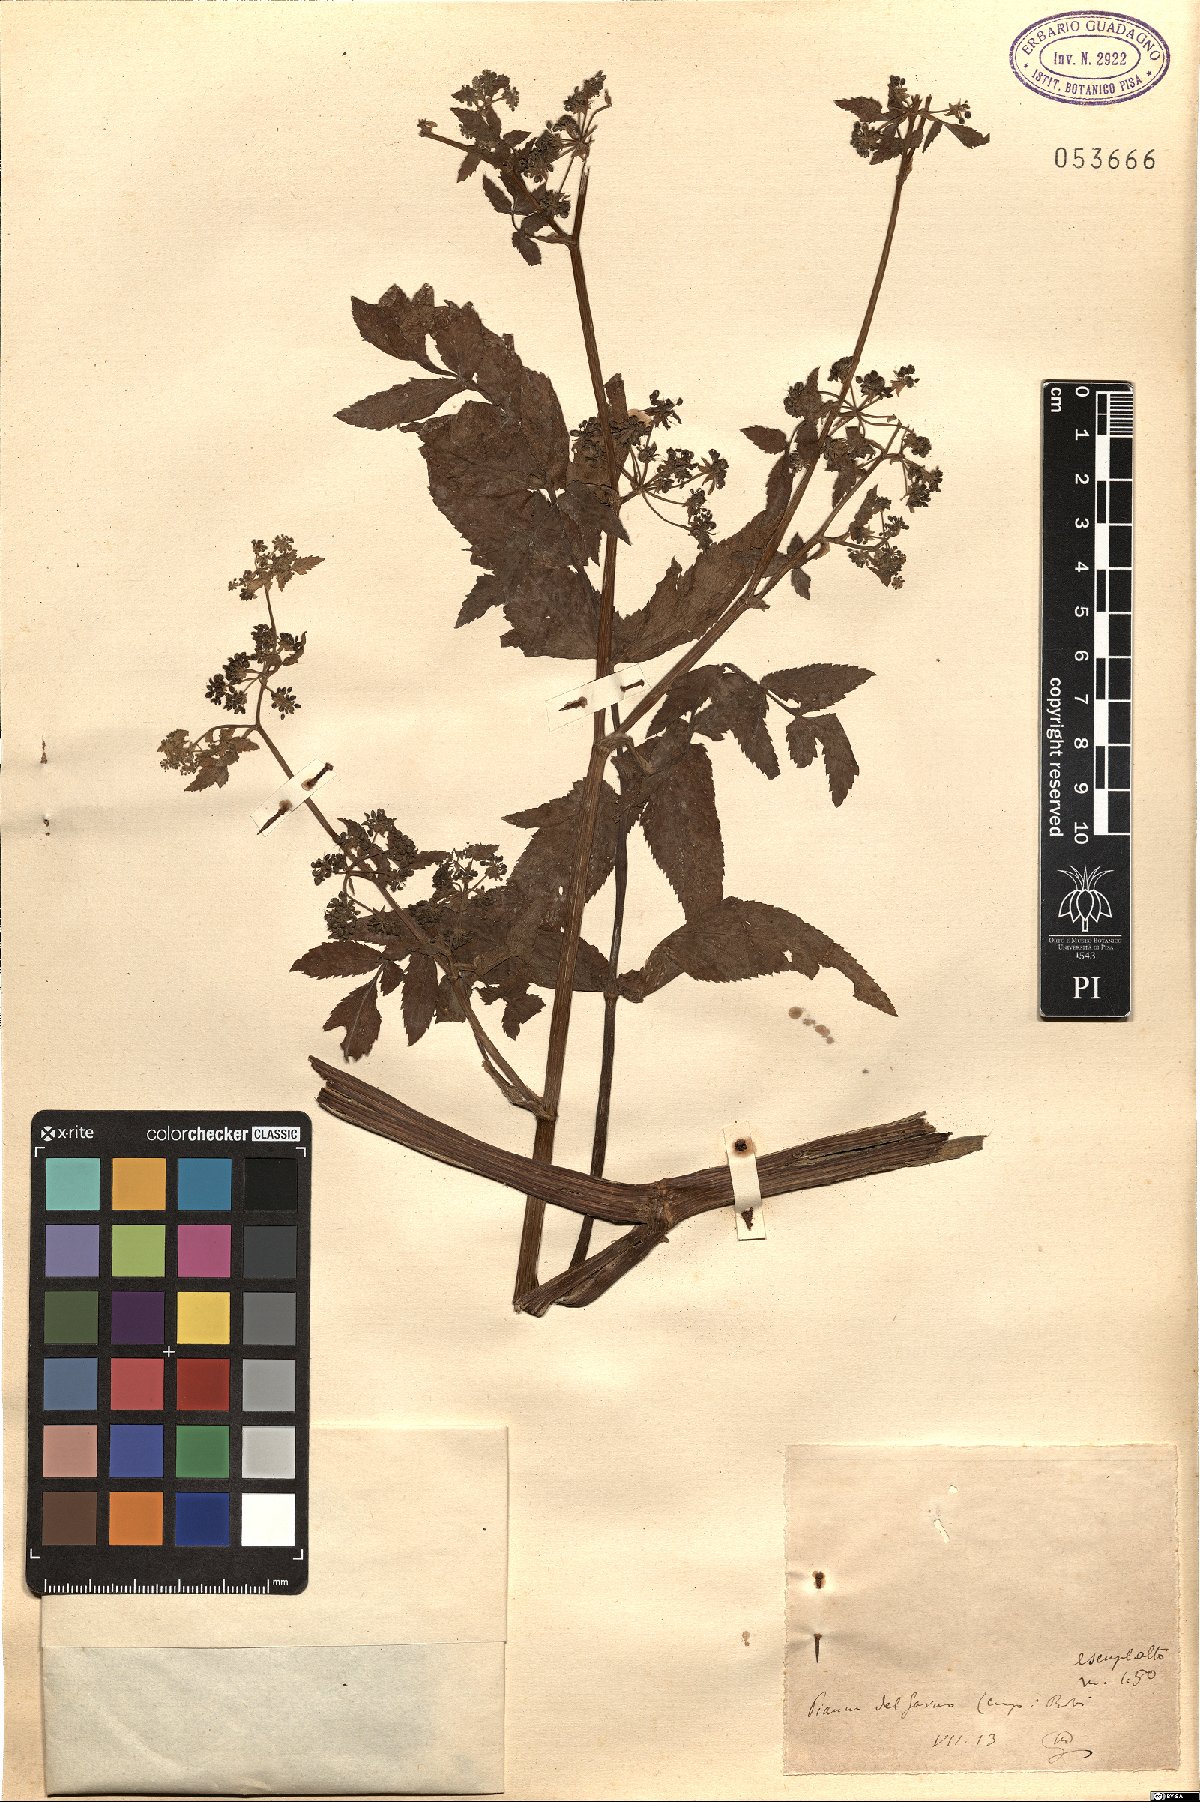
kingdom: Plantae
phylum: Tracheophyta
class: Magnoliopsida
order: Apiales
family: Apiaceae
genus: Apium
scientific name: Apium
